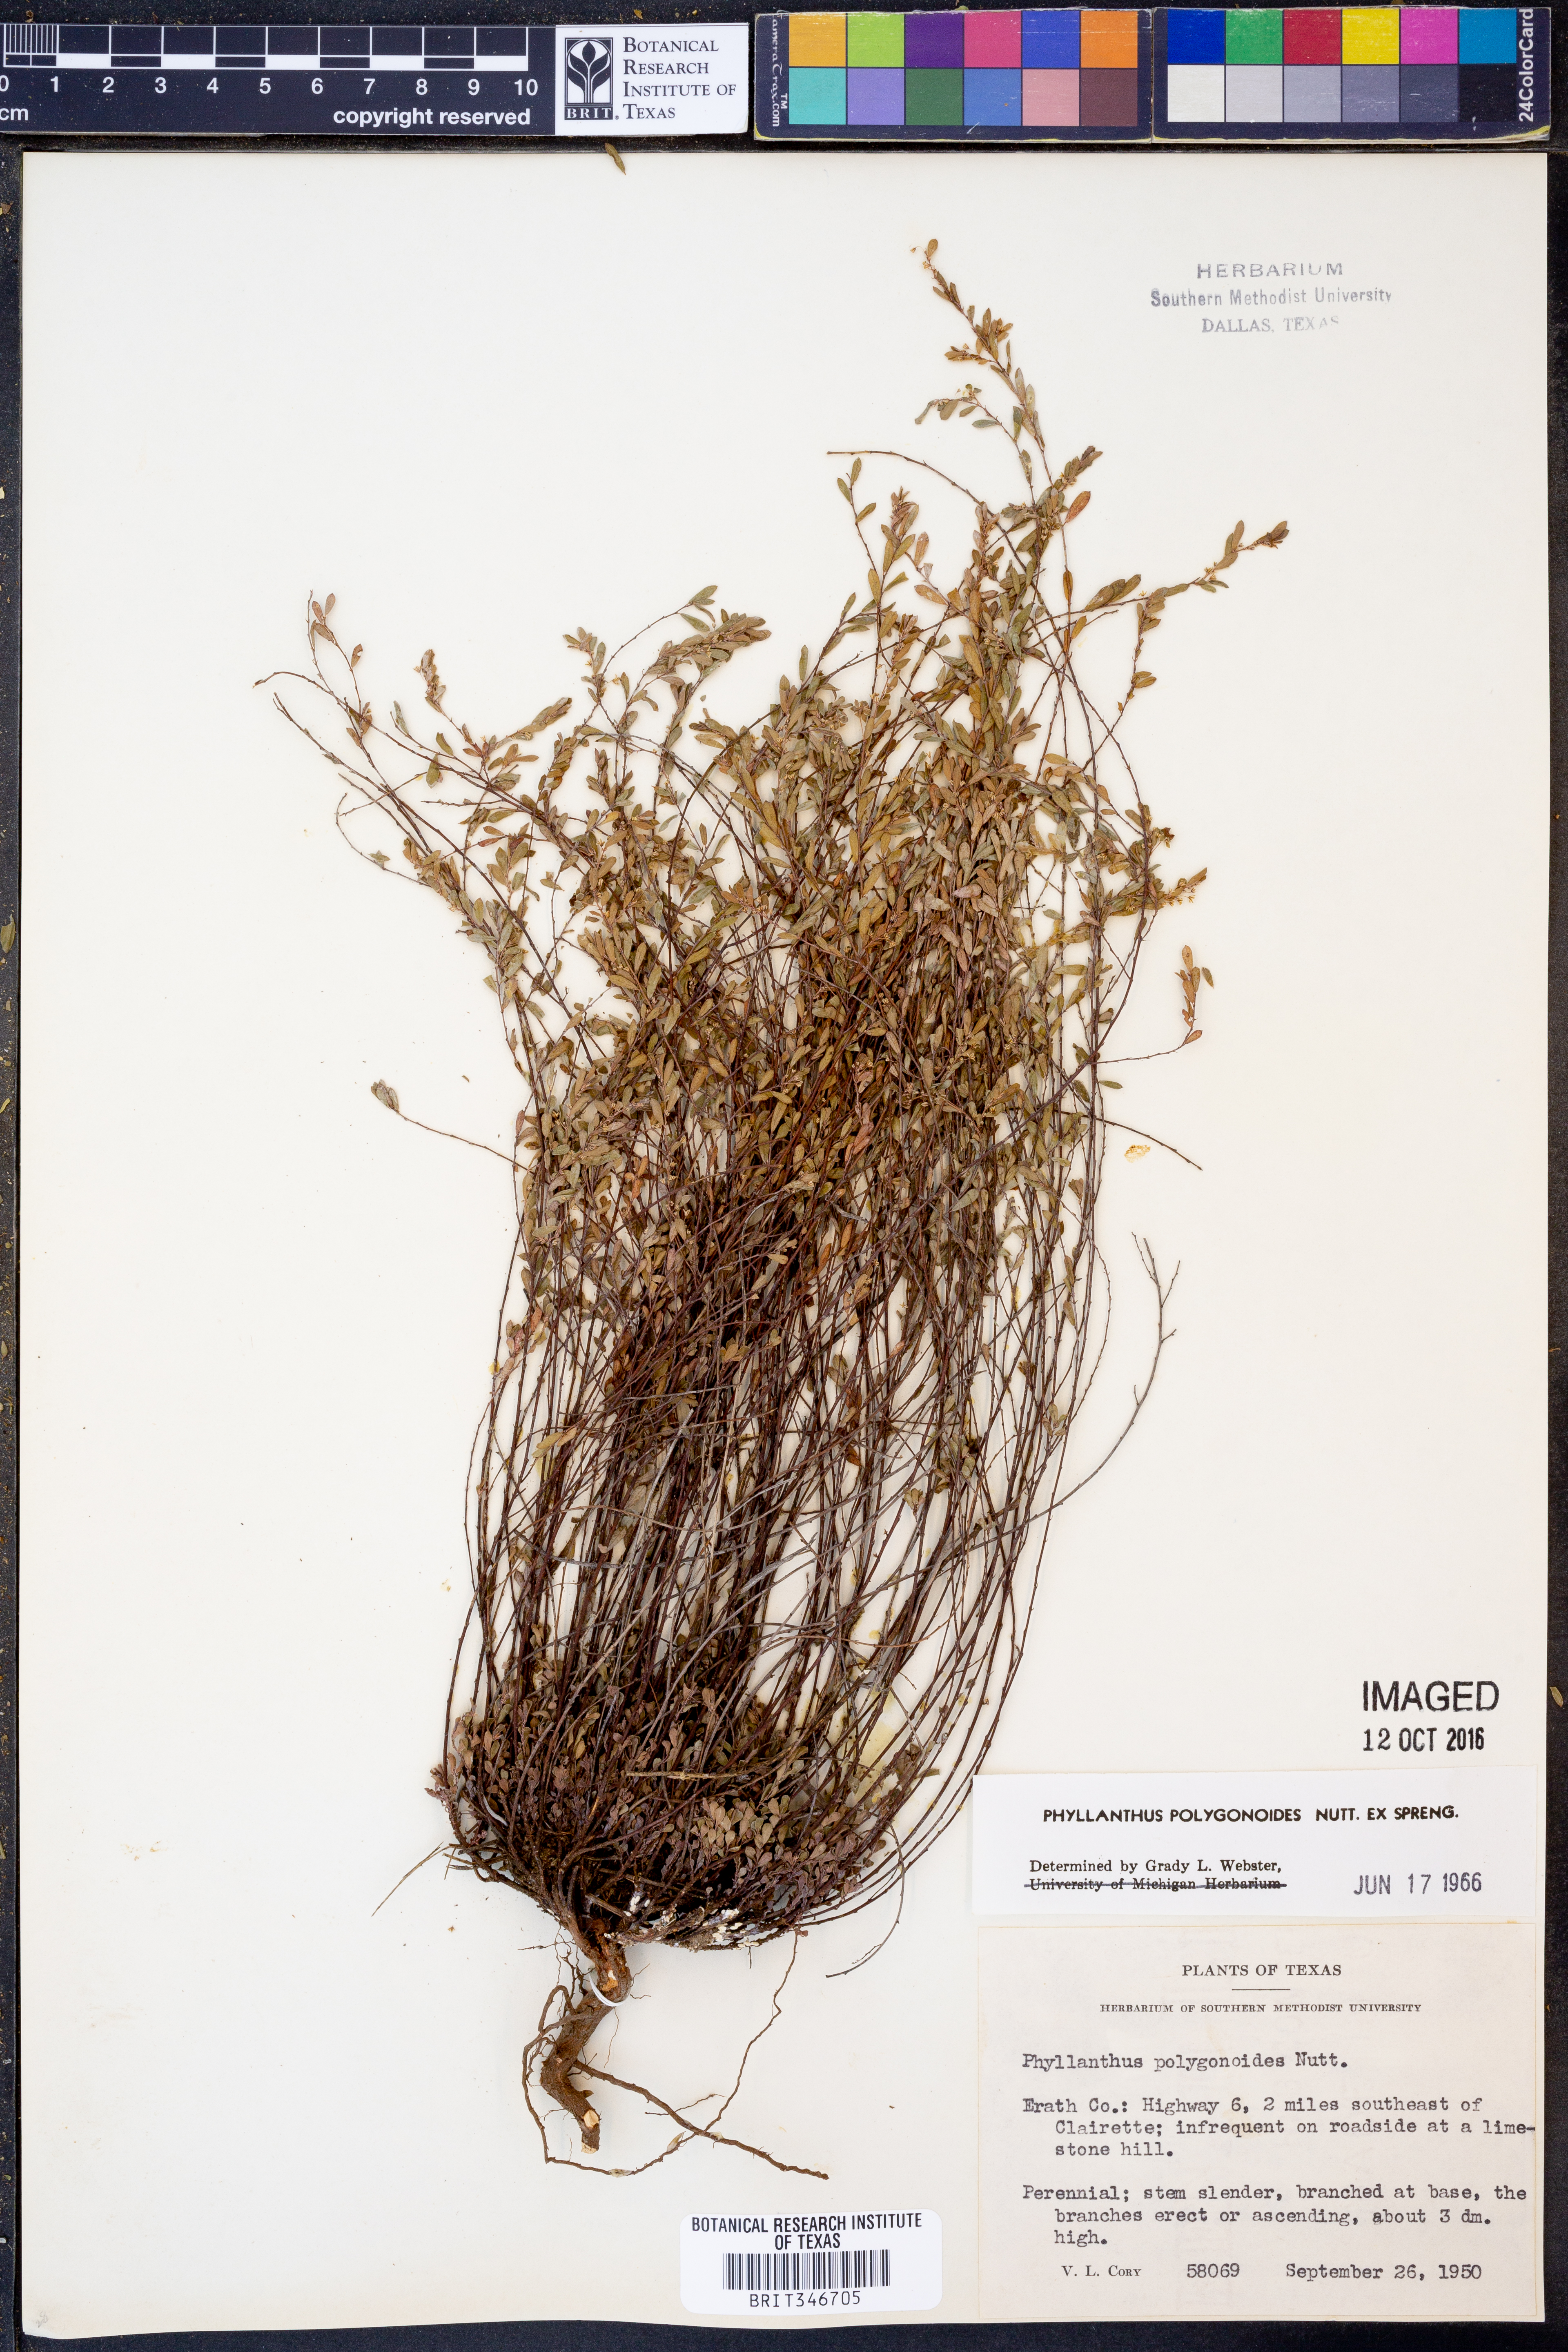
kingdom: Plantae
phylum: Tracheophyta
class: Magnoliopsida
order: Malpighiales
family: Phyllanthaceae
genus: Phyllanthus
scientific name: Phyllanthus polygonoides
